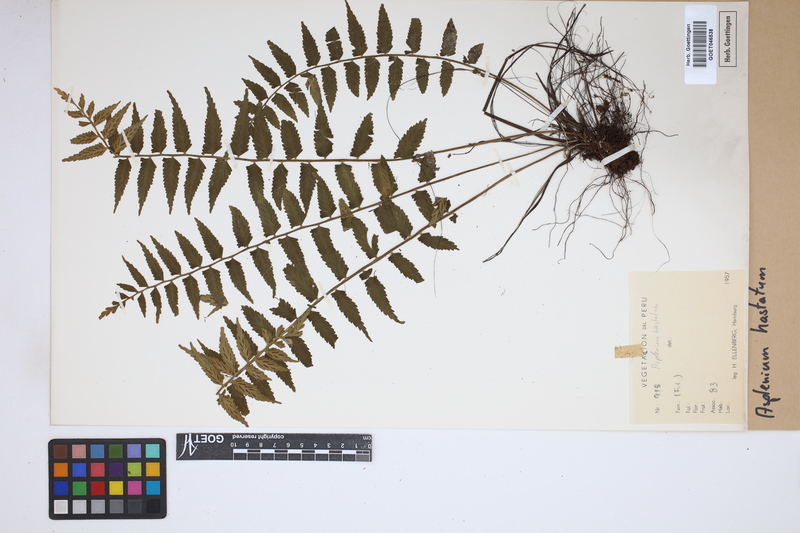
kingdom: Plantae
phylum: Tracheophyta
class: Polypodiopsida
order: Polypodiales
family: Aspleniaceae
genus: Asplenium
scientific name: Asplenium hastatum
